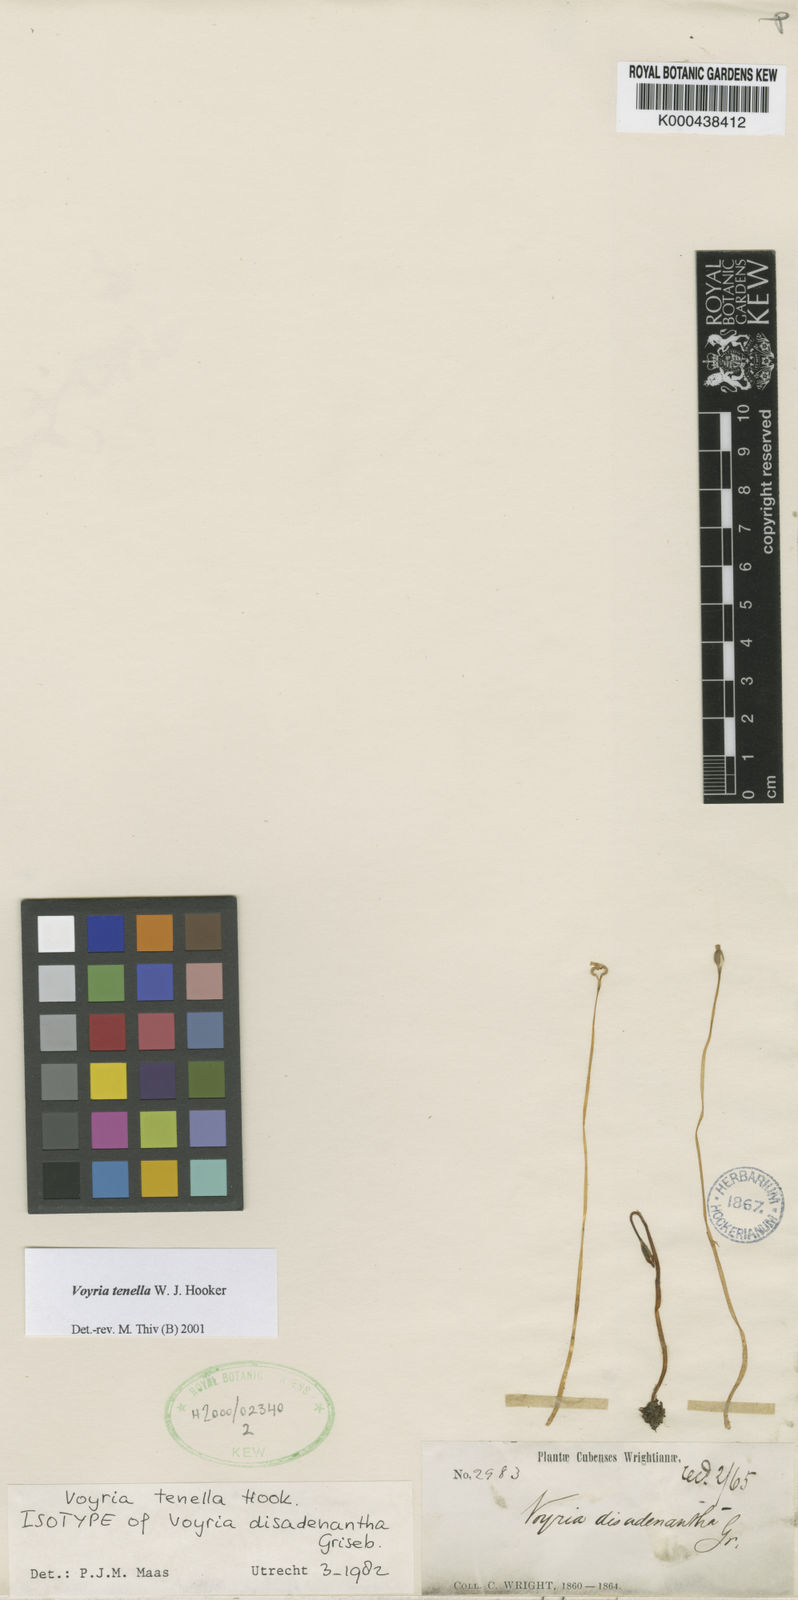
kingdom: Plantae
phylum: Tracheophyta
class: Magnoliopsida
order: Gentianales
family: Gentianaceae
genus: Voyria
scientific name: Voyria tenella
